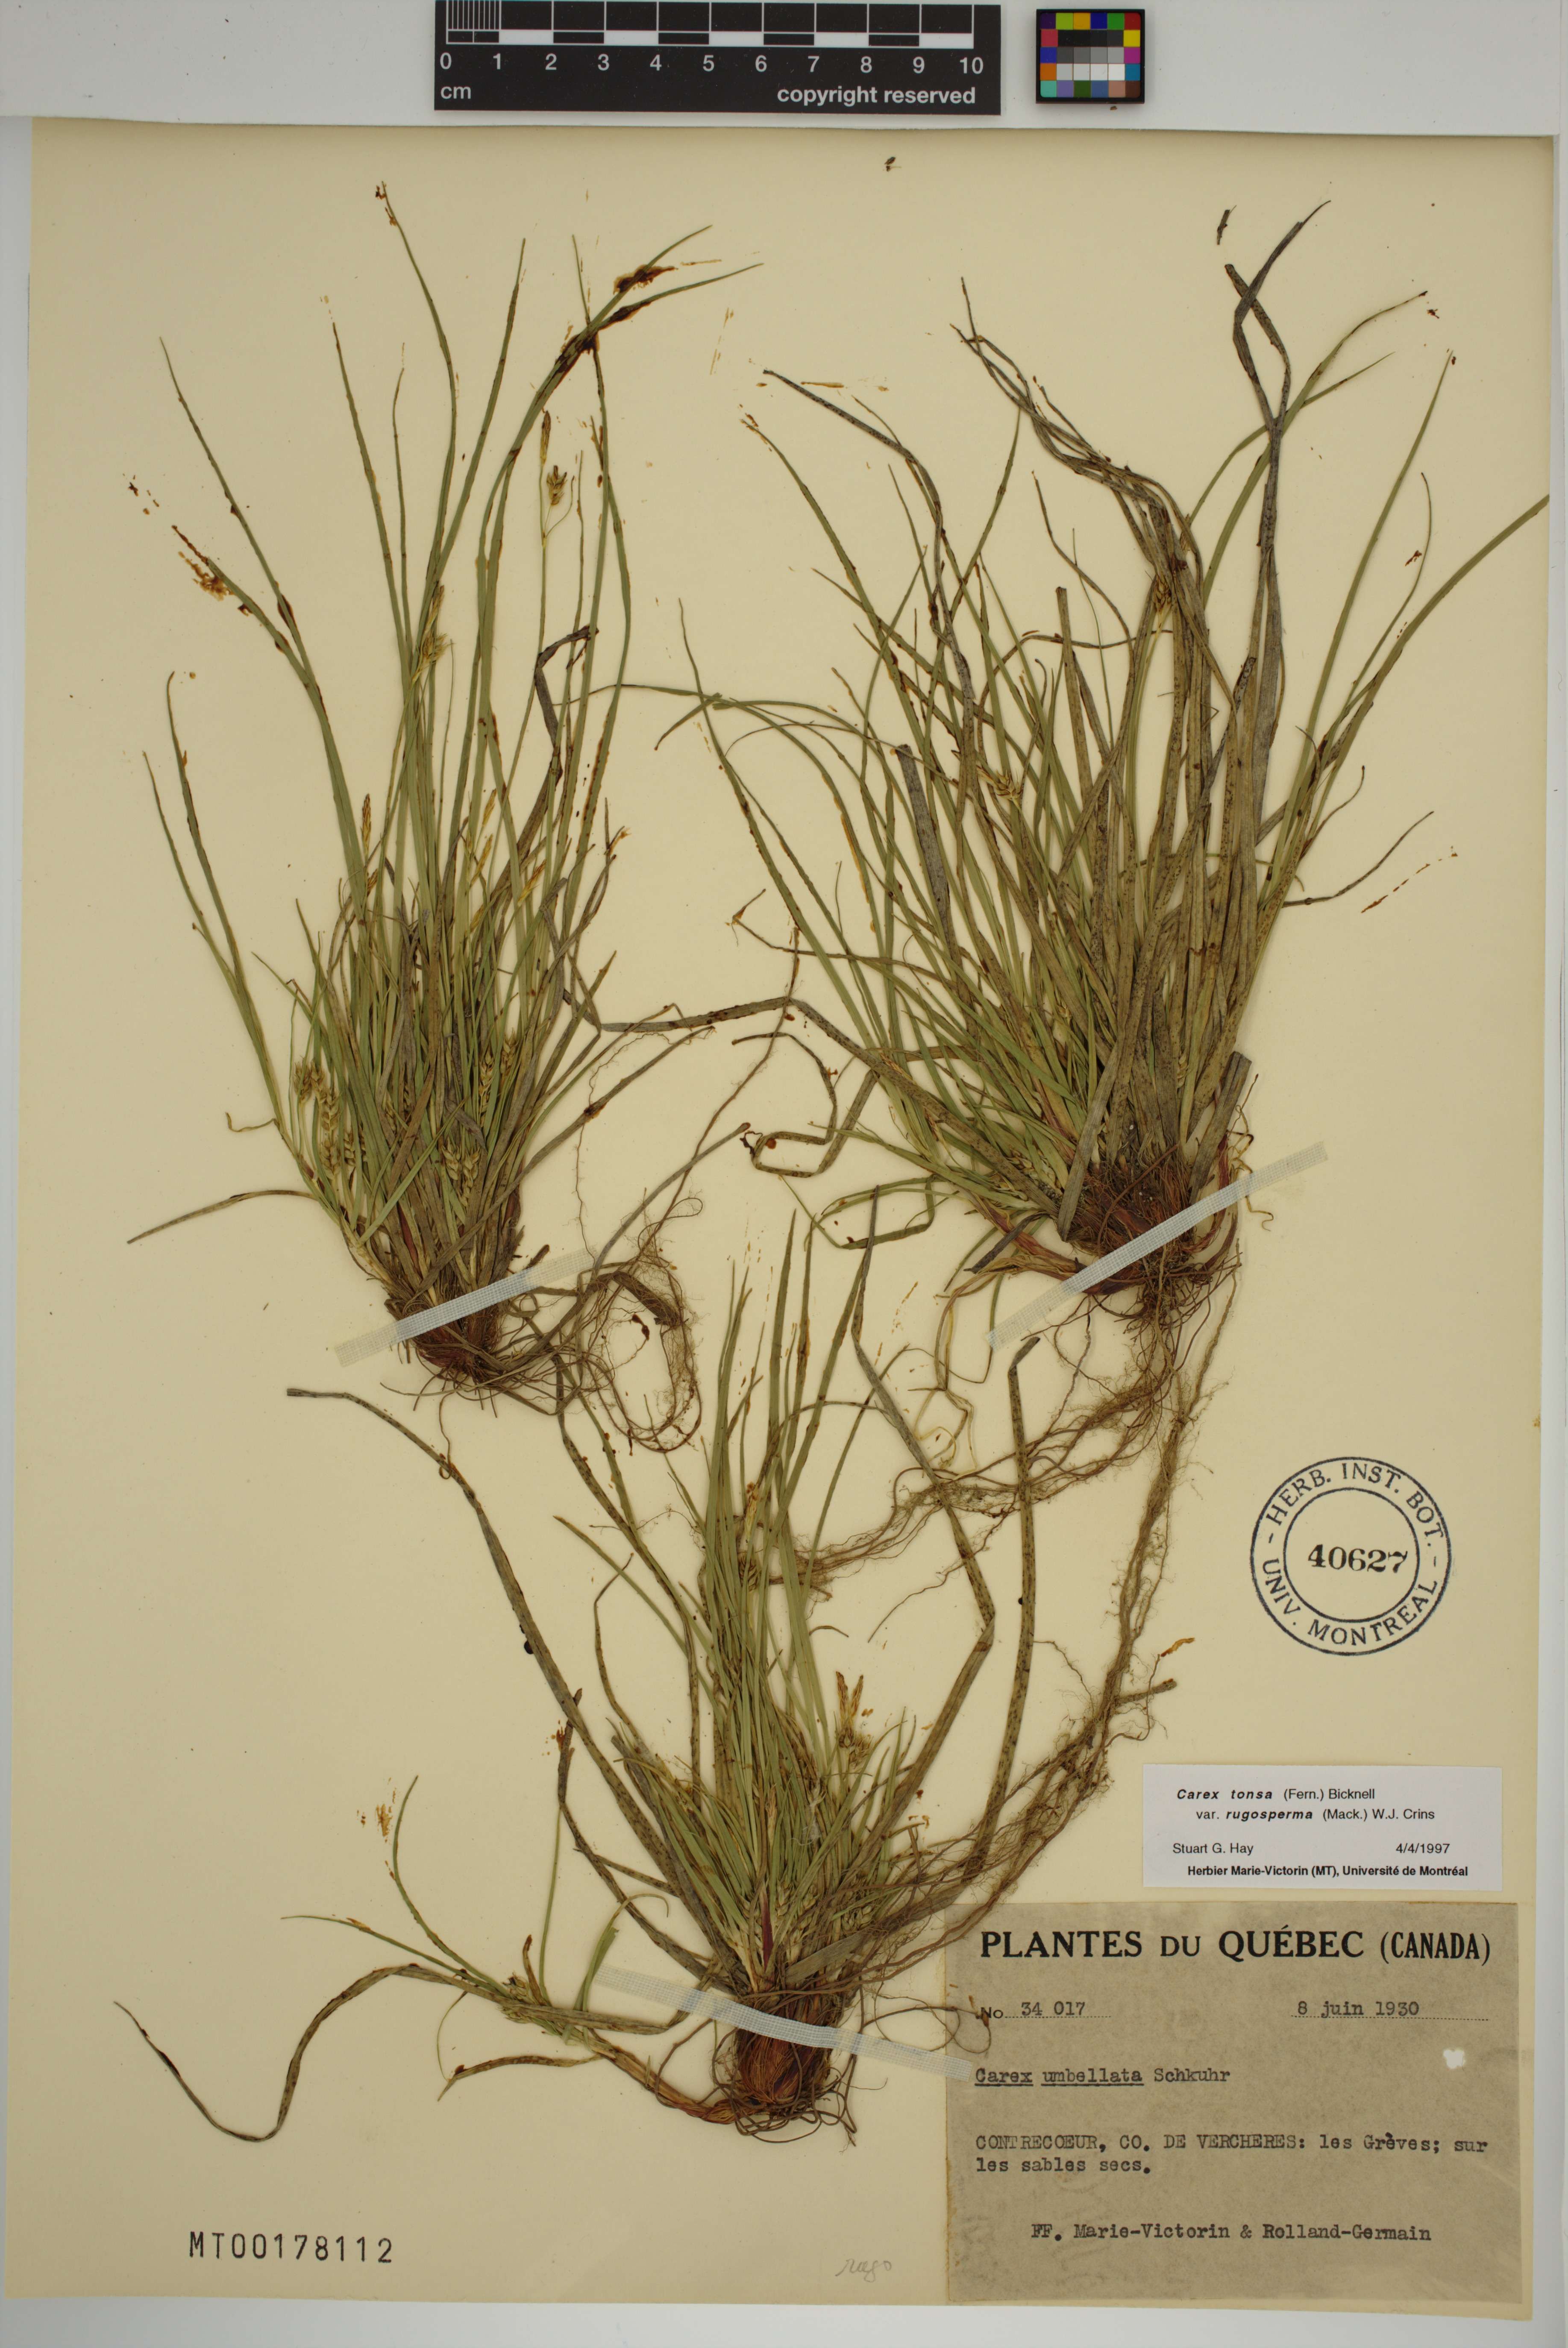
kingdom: Plantae
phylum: Tracheophyta
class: Liliopsida
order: Poales
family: Cyperaceae
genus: Carex
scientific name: Carex tonsa
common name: Bald sedge
